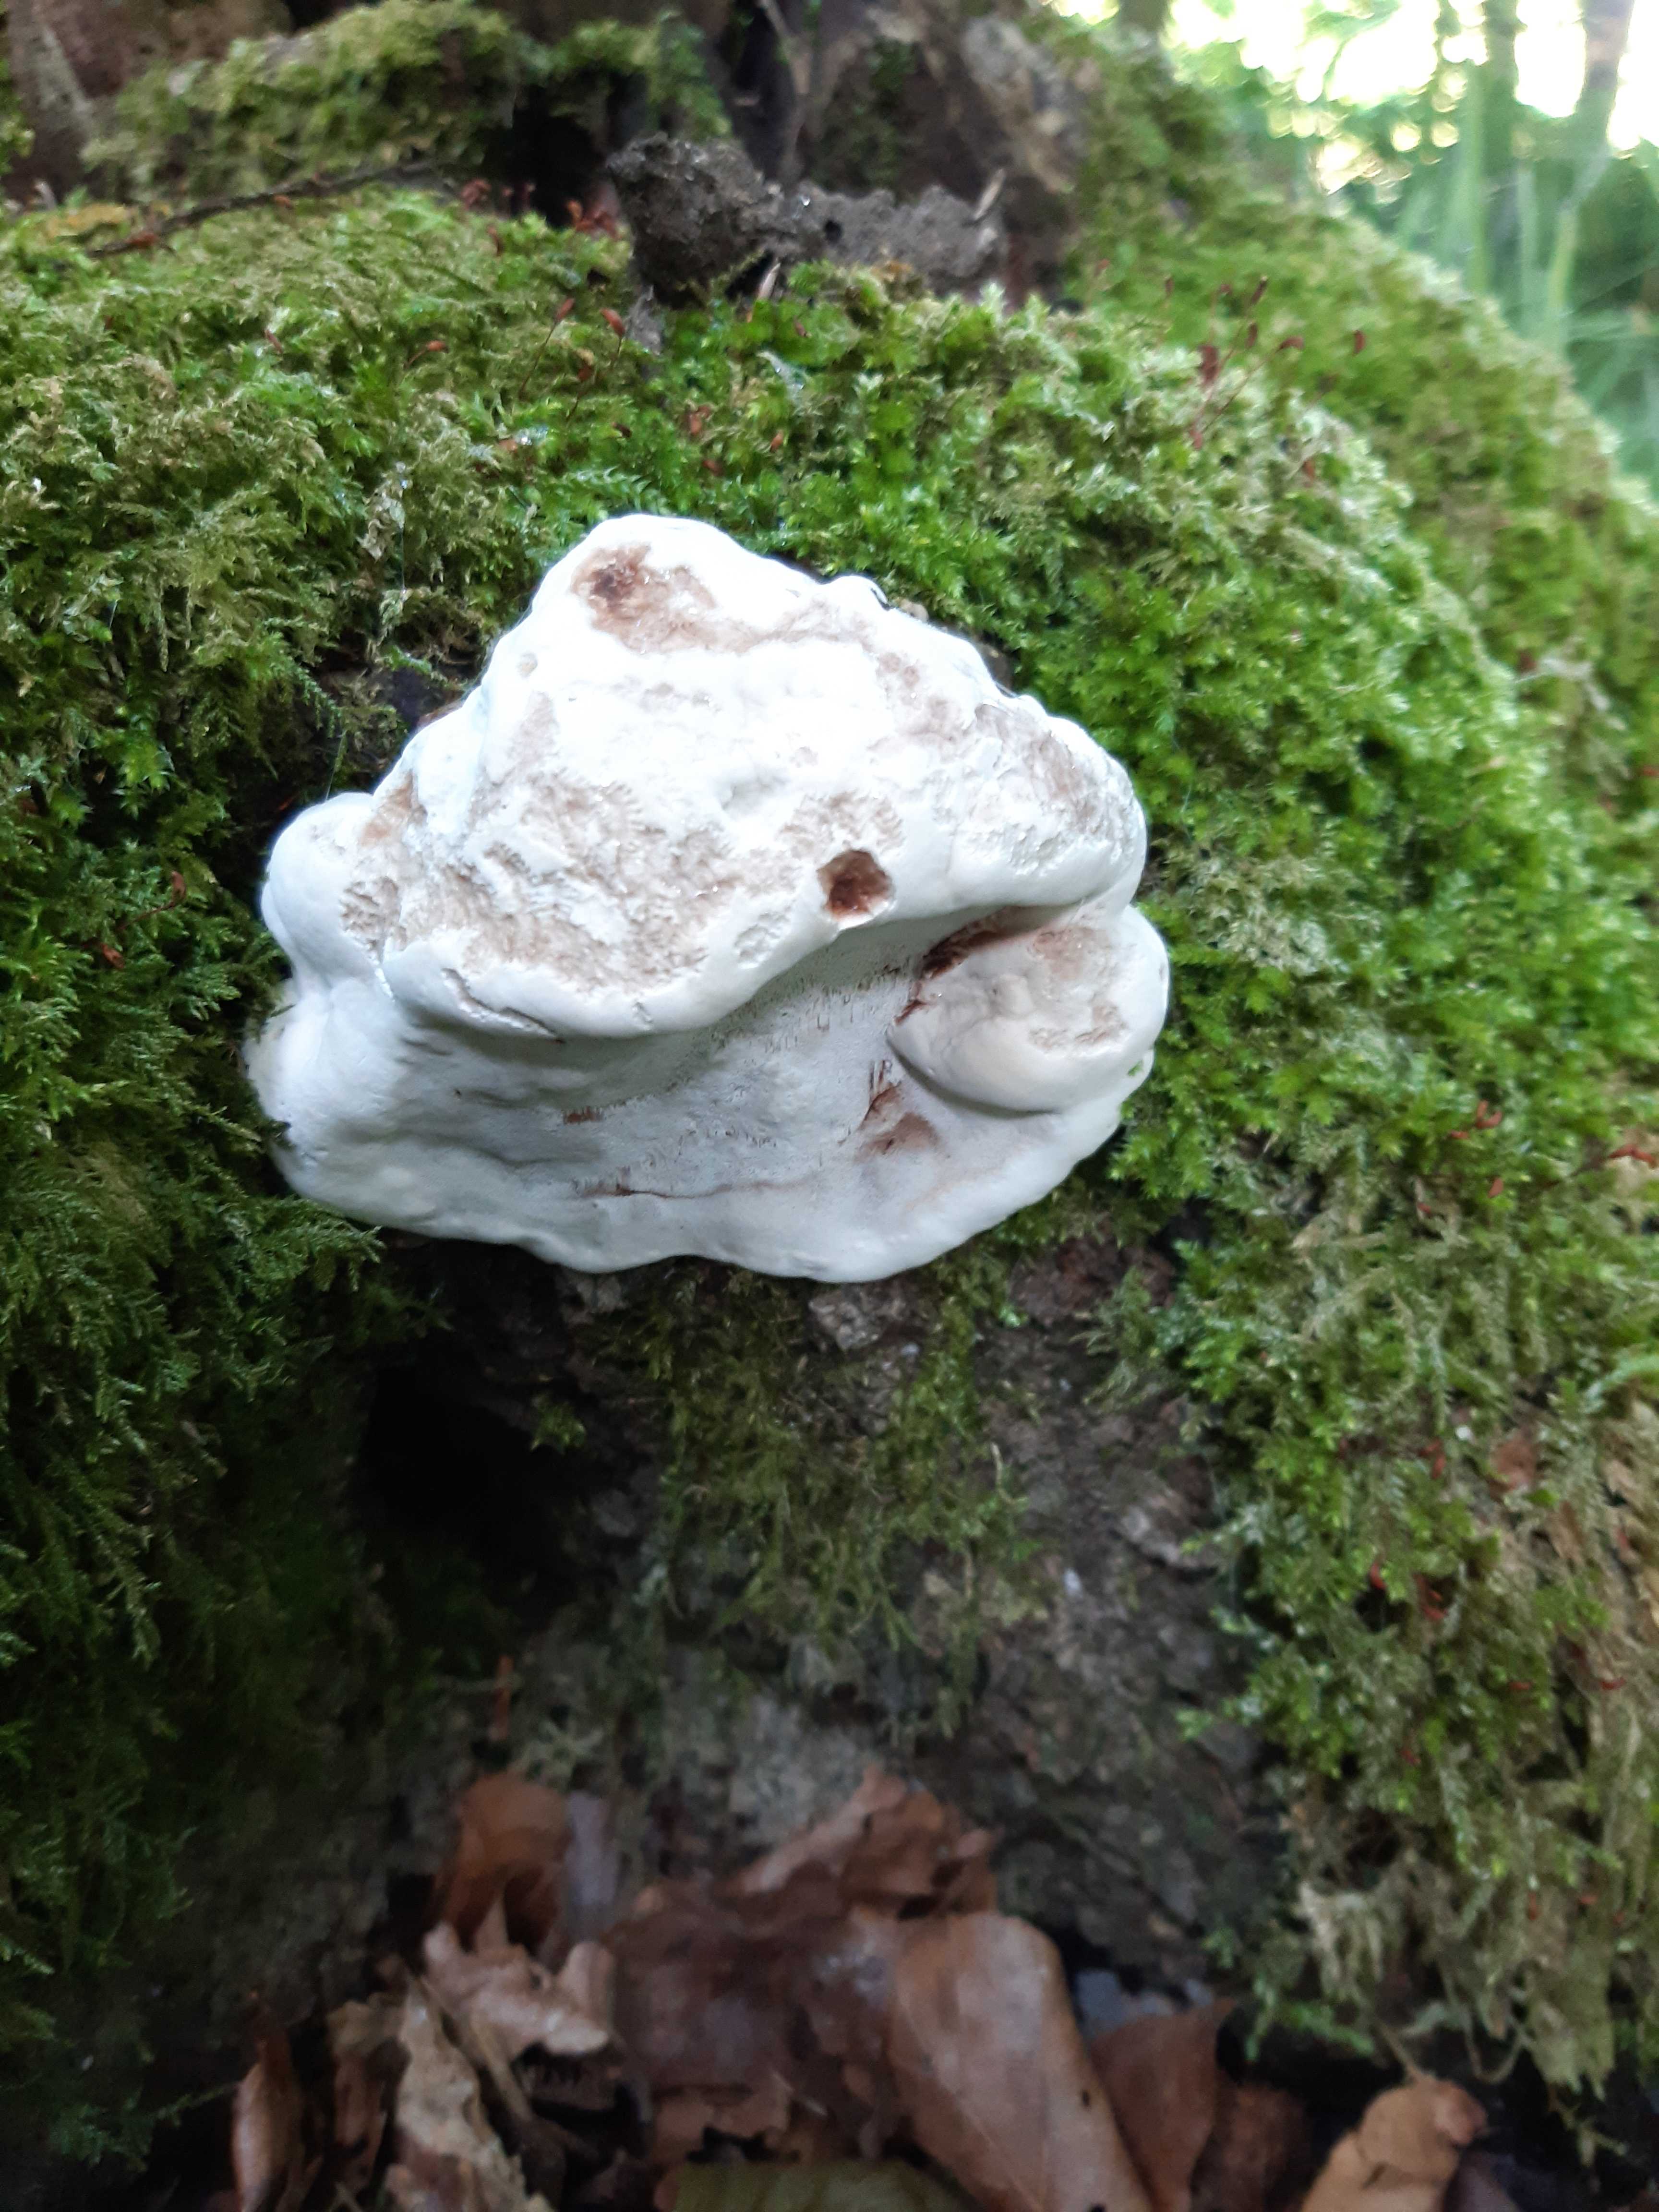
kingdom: Fungi
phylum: Basidiomycota
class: Agaricomycetes
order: Polyporales
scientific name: Polyporales
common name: poresvampordenen
